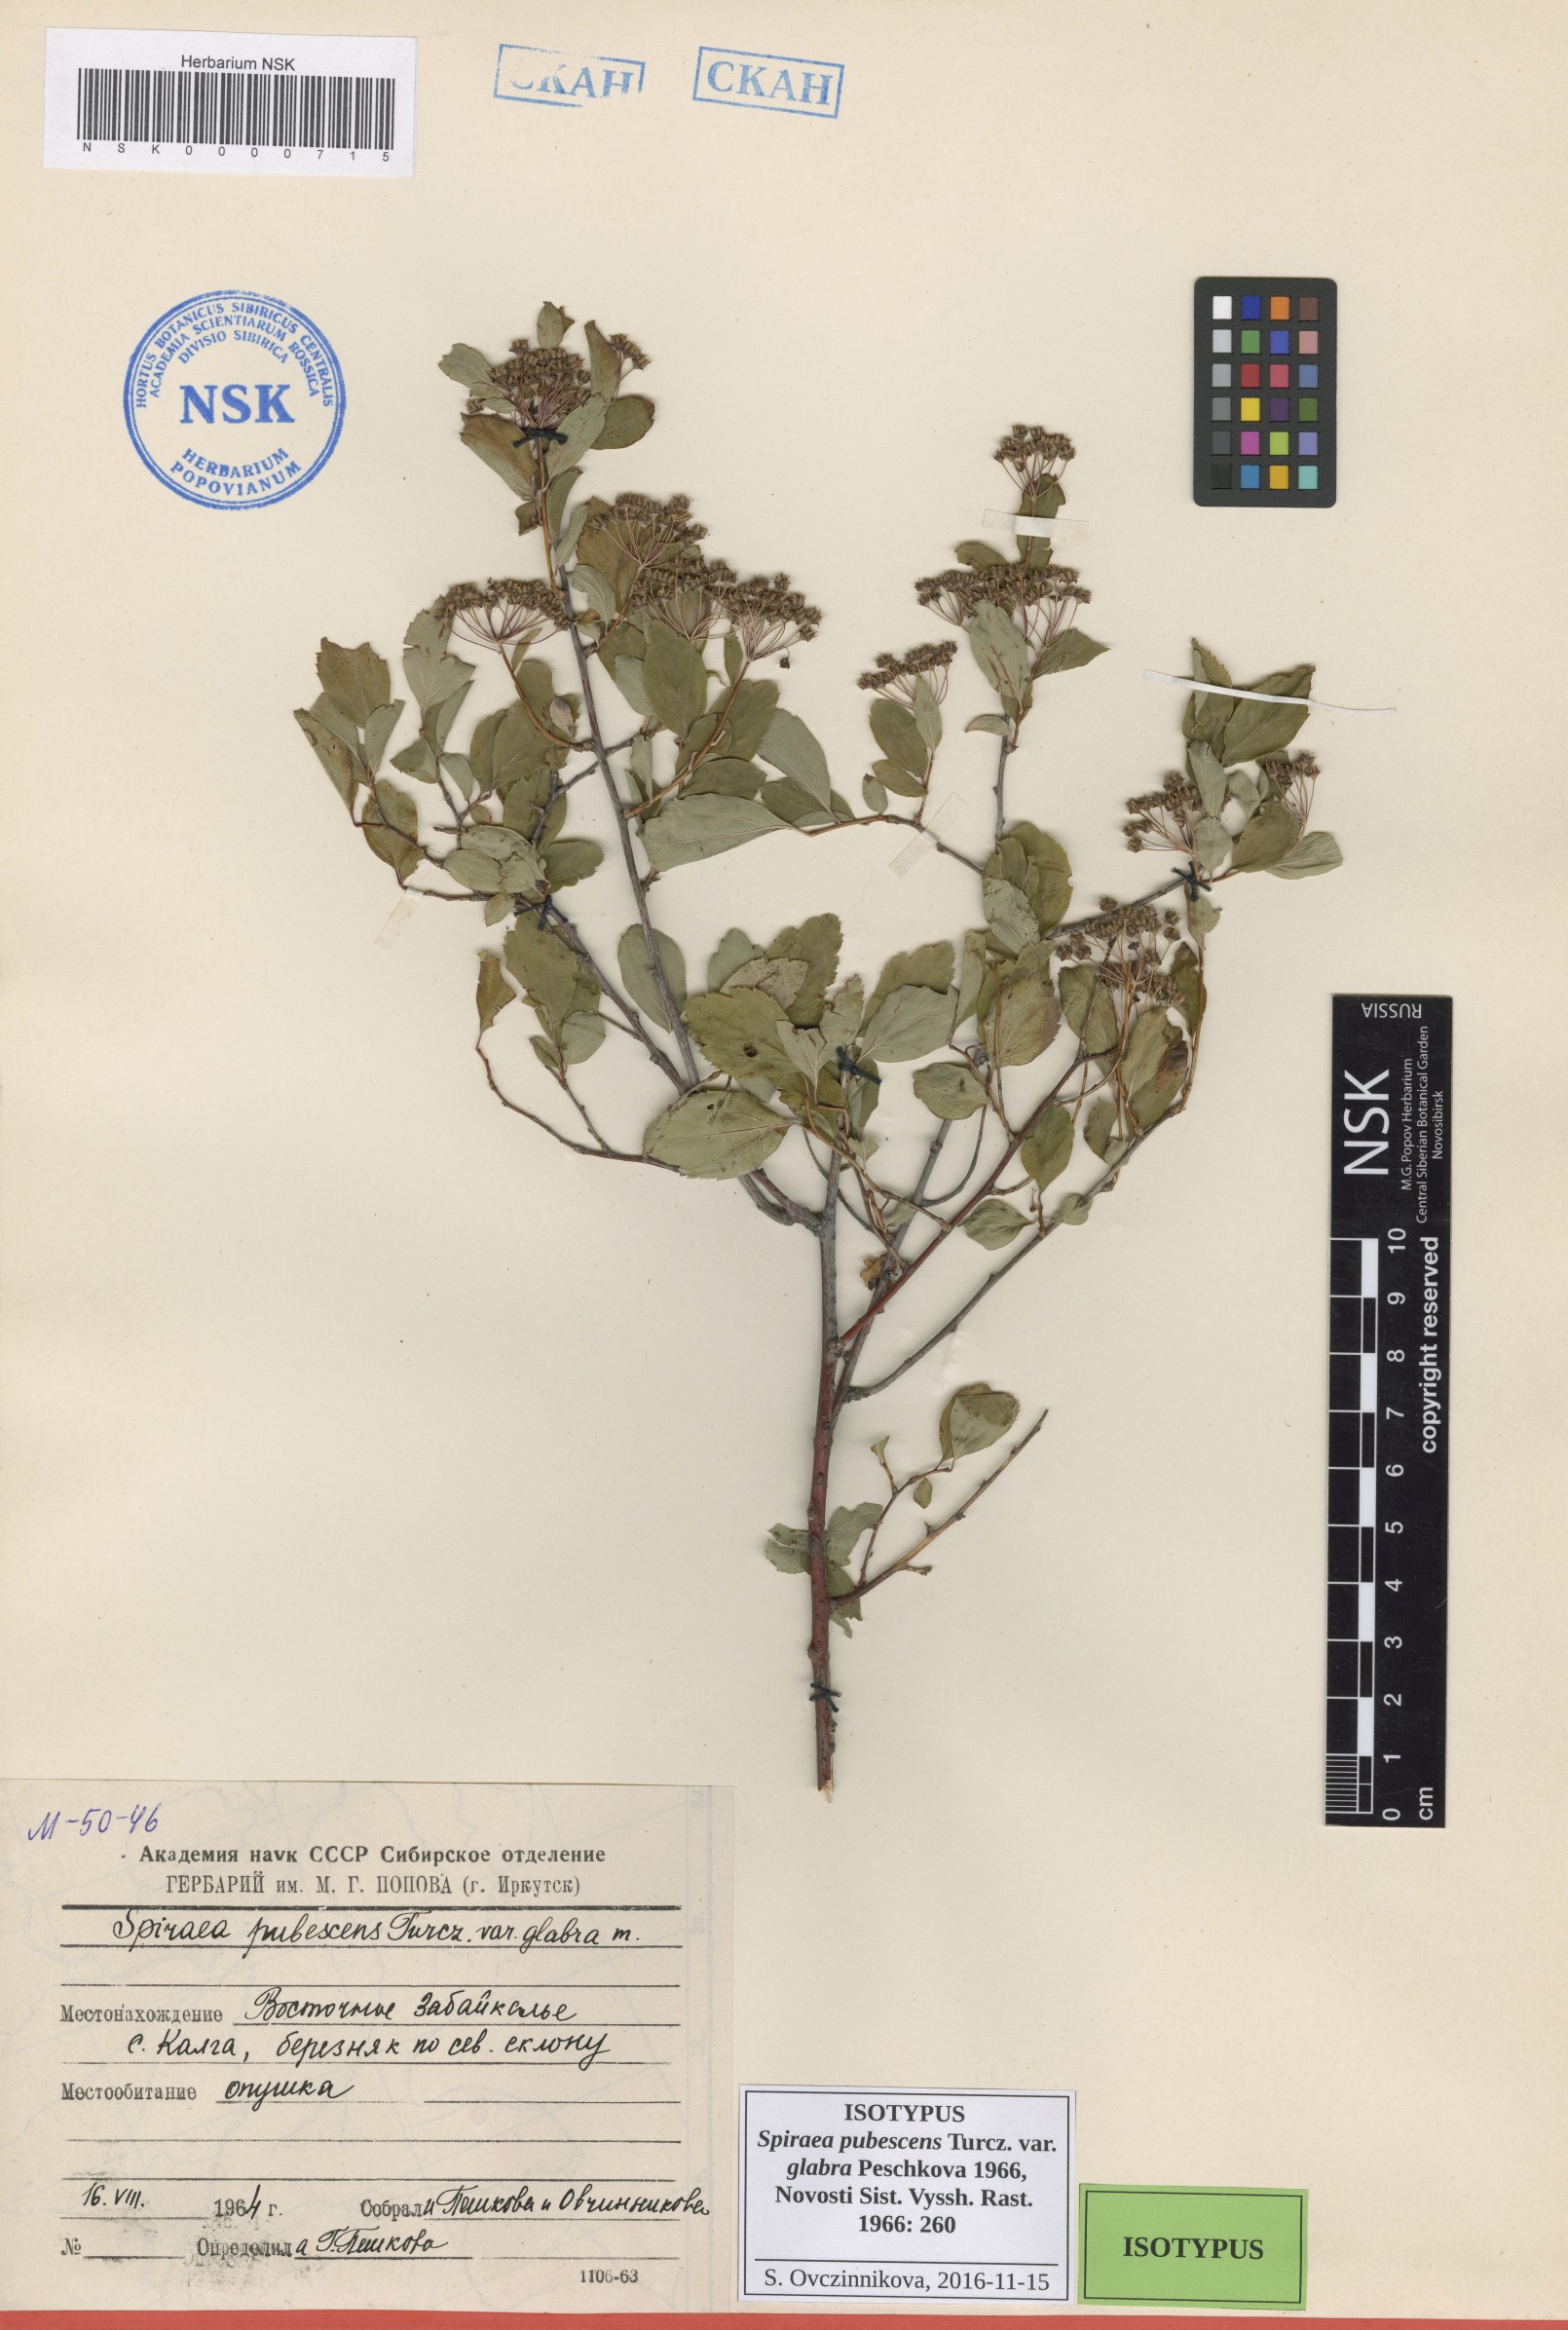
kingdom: Plantae
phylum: Tracheophyta
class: Magnoliopsida
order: Rosales
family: Rosaceae
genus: Spiraea
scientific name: Spiraea ouensanensis
